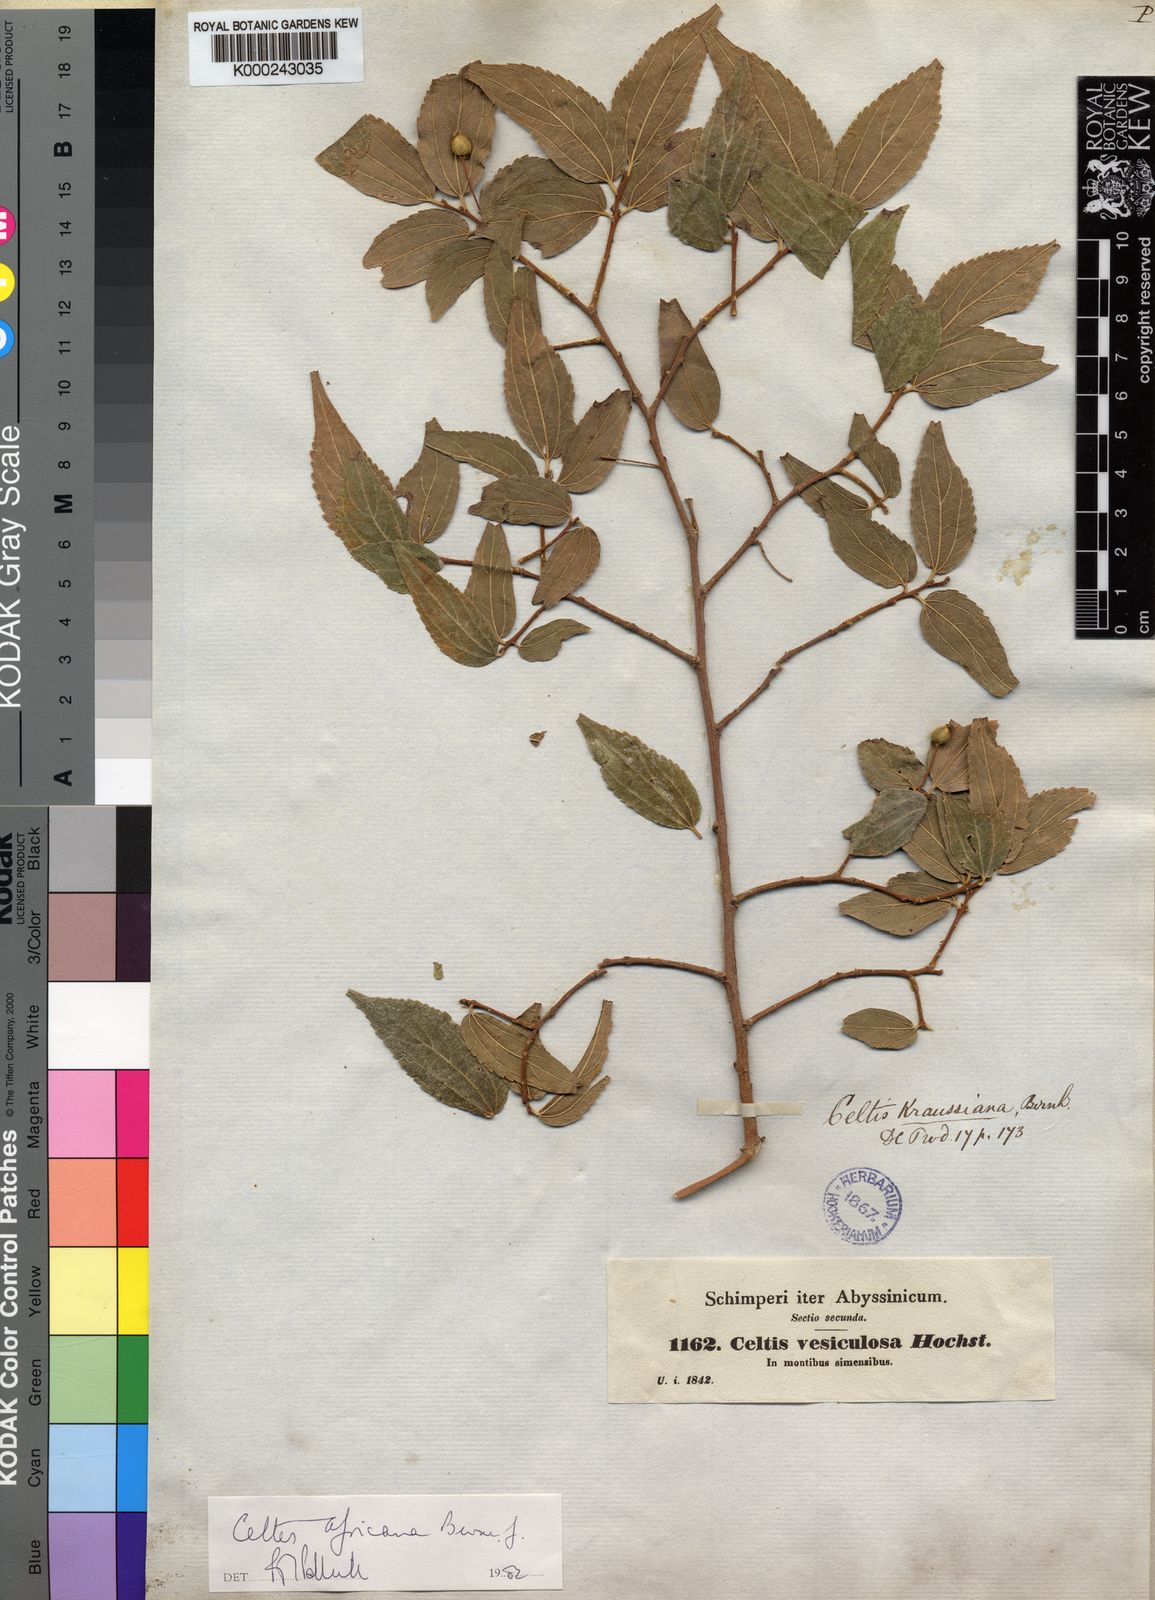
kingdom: Plantae
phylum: Tracheophyta
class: Magnoliopsida
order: Rosales
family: Cannabaceae
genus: Celtis
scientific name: Celtis
